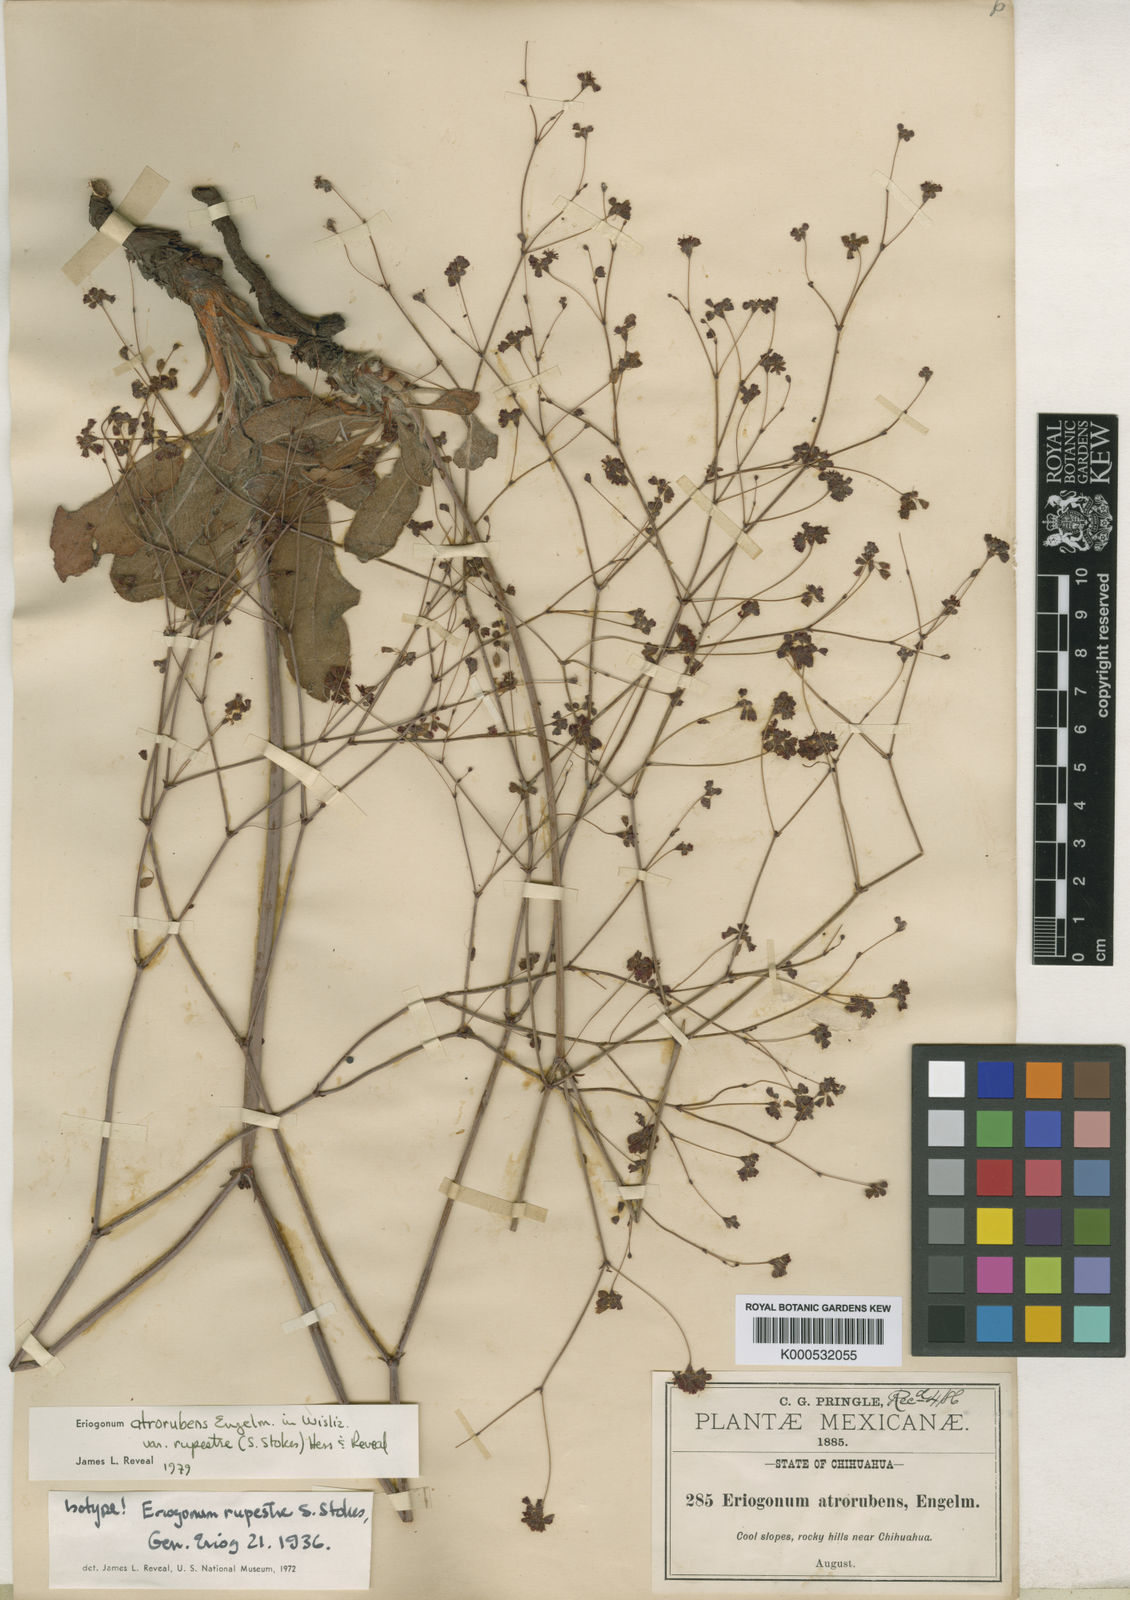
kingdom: Plantae
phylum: Tracheophyta
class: Magnoliopsida
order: Caryophyllales
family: Polygonaceae
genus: Eriogonum
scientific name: Eriogonum atrorubens
